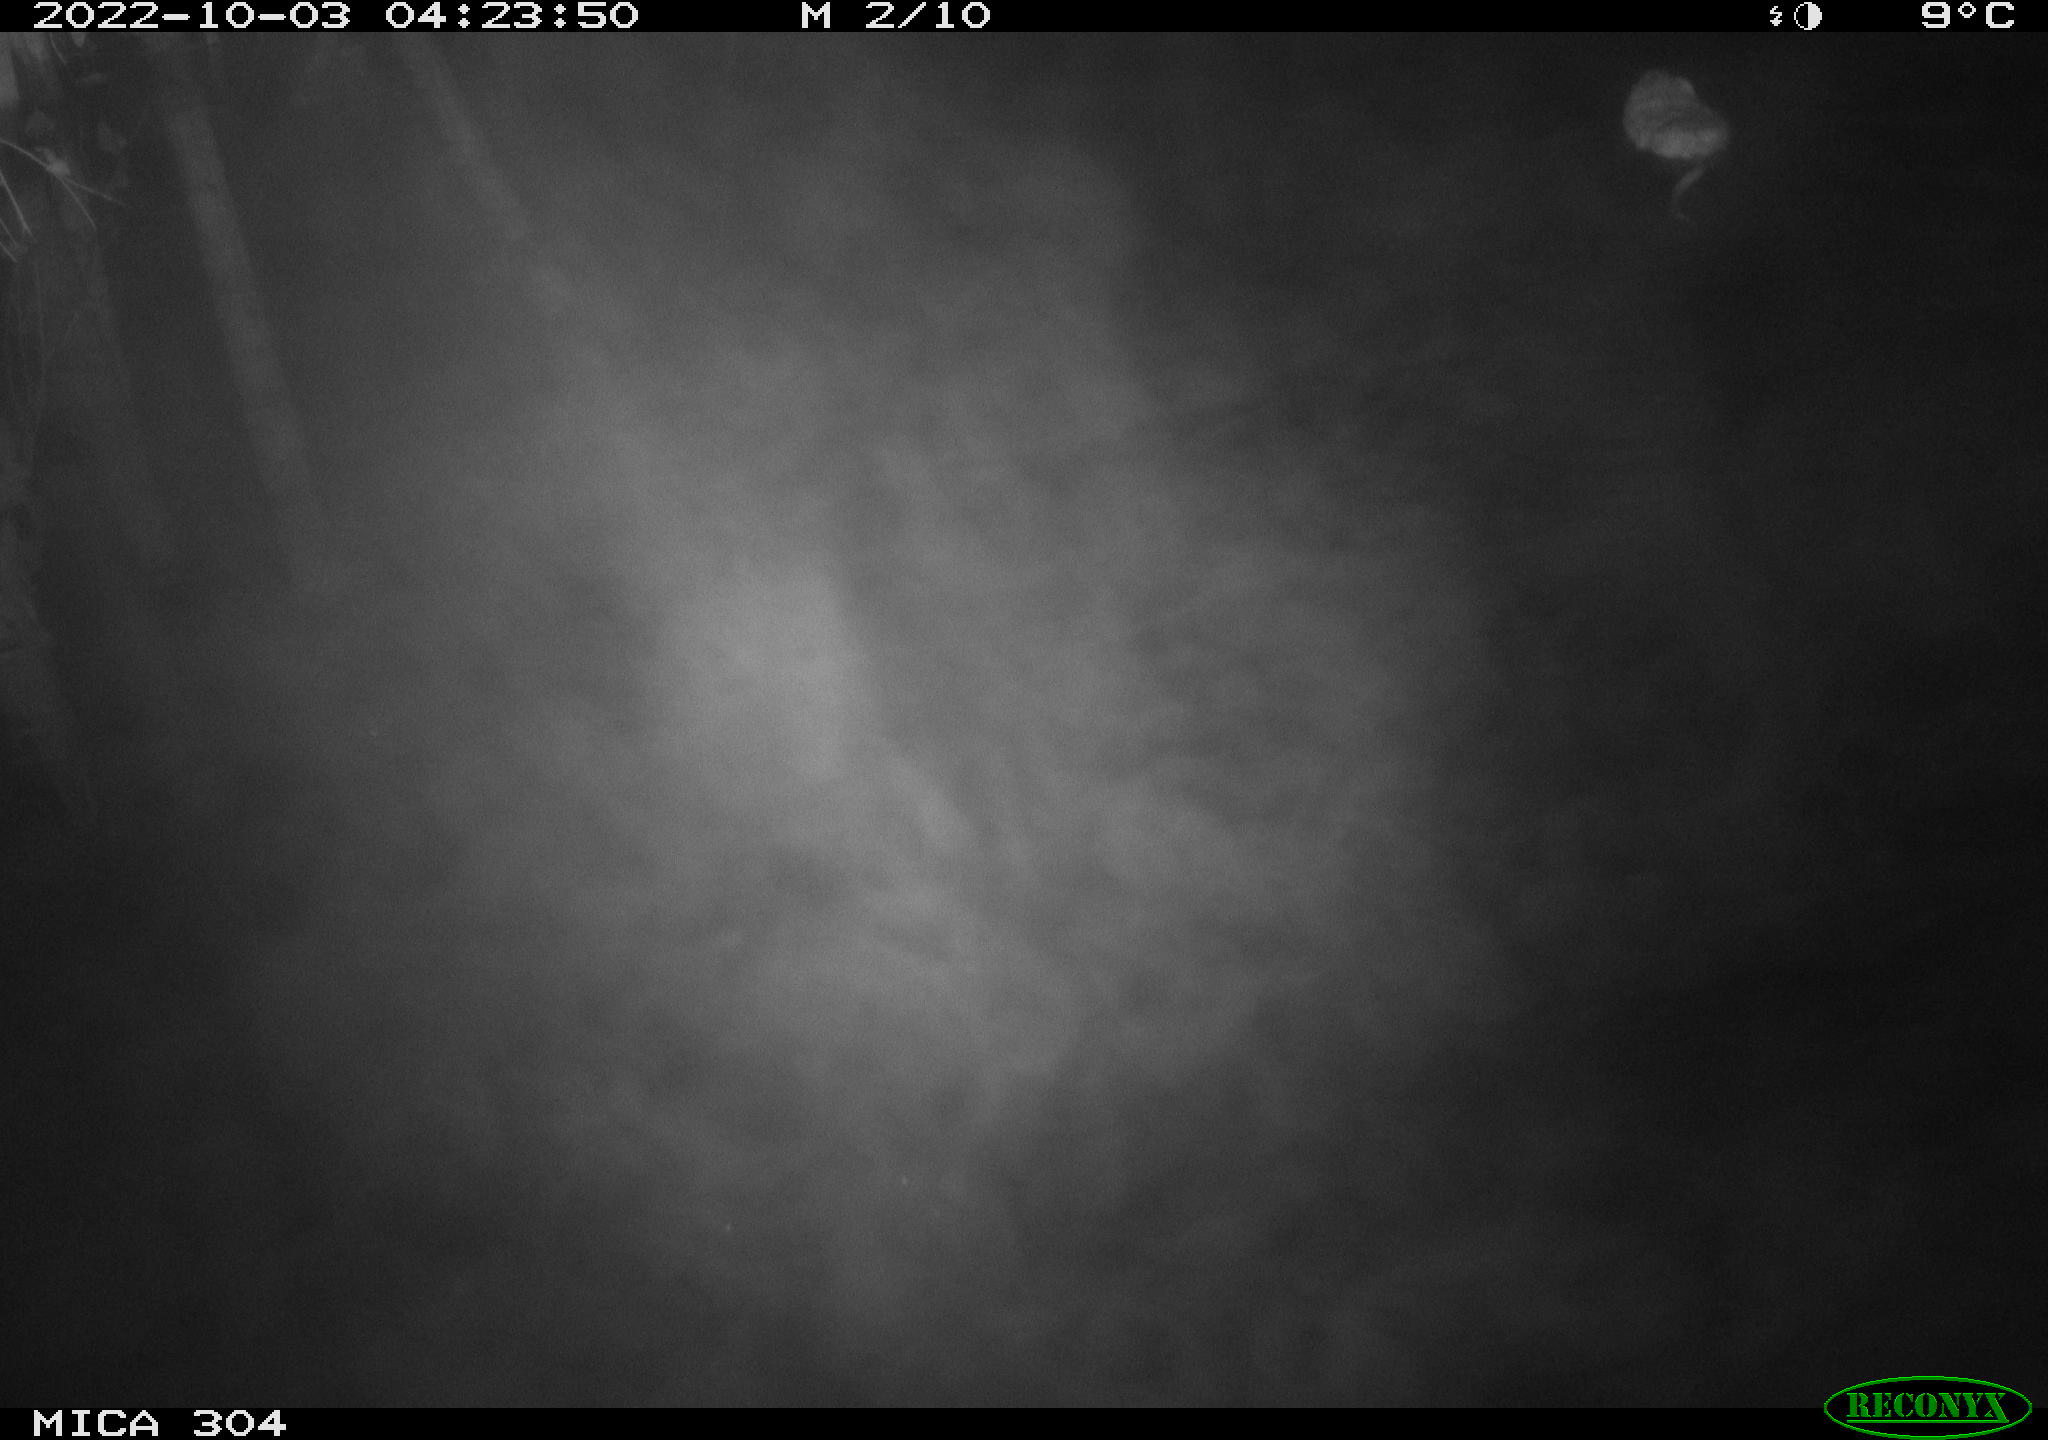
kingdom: Animalia
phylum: Chordata
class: Mammalia
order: Rodentia
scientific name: Rodentia
